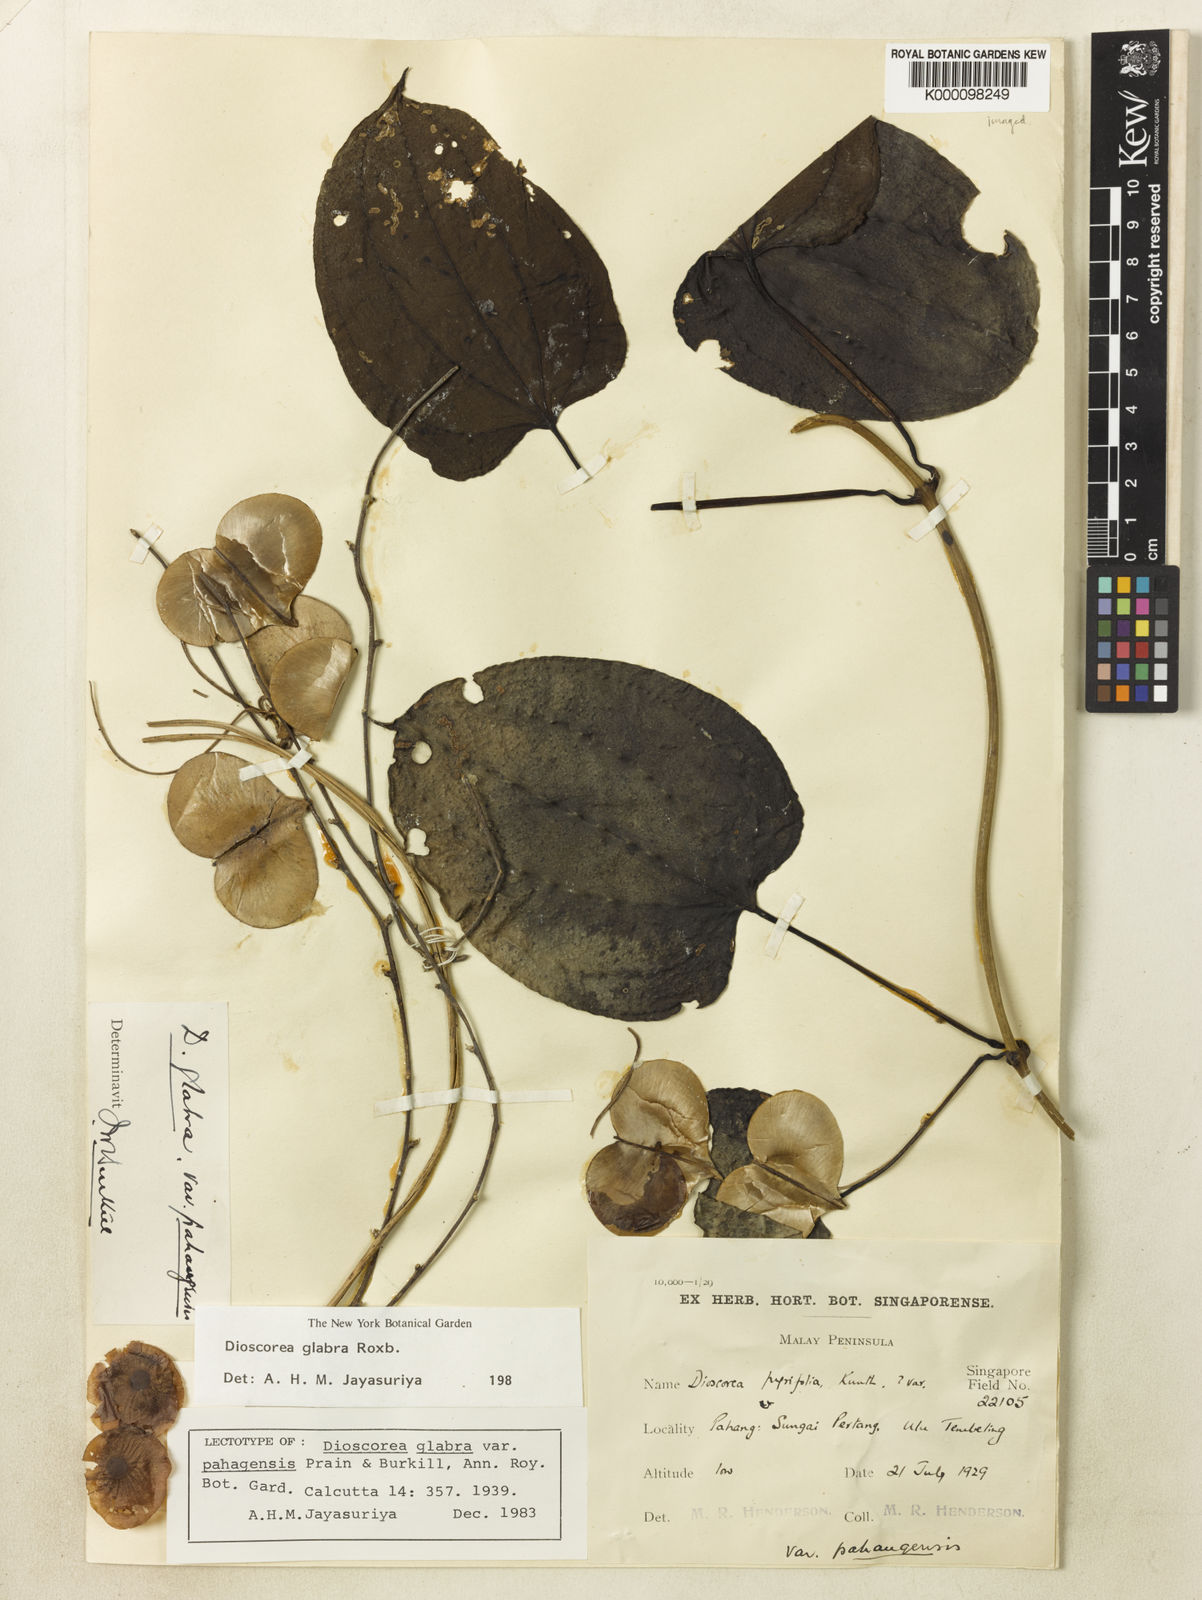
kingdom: Plantae
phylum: Tracheophyta
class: Liliopsida
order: Dioscoreales
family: Dioscoreaceae
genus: Dioscorea
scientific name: Dioscorea glabra
